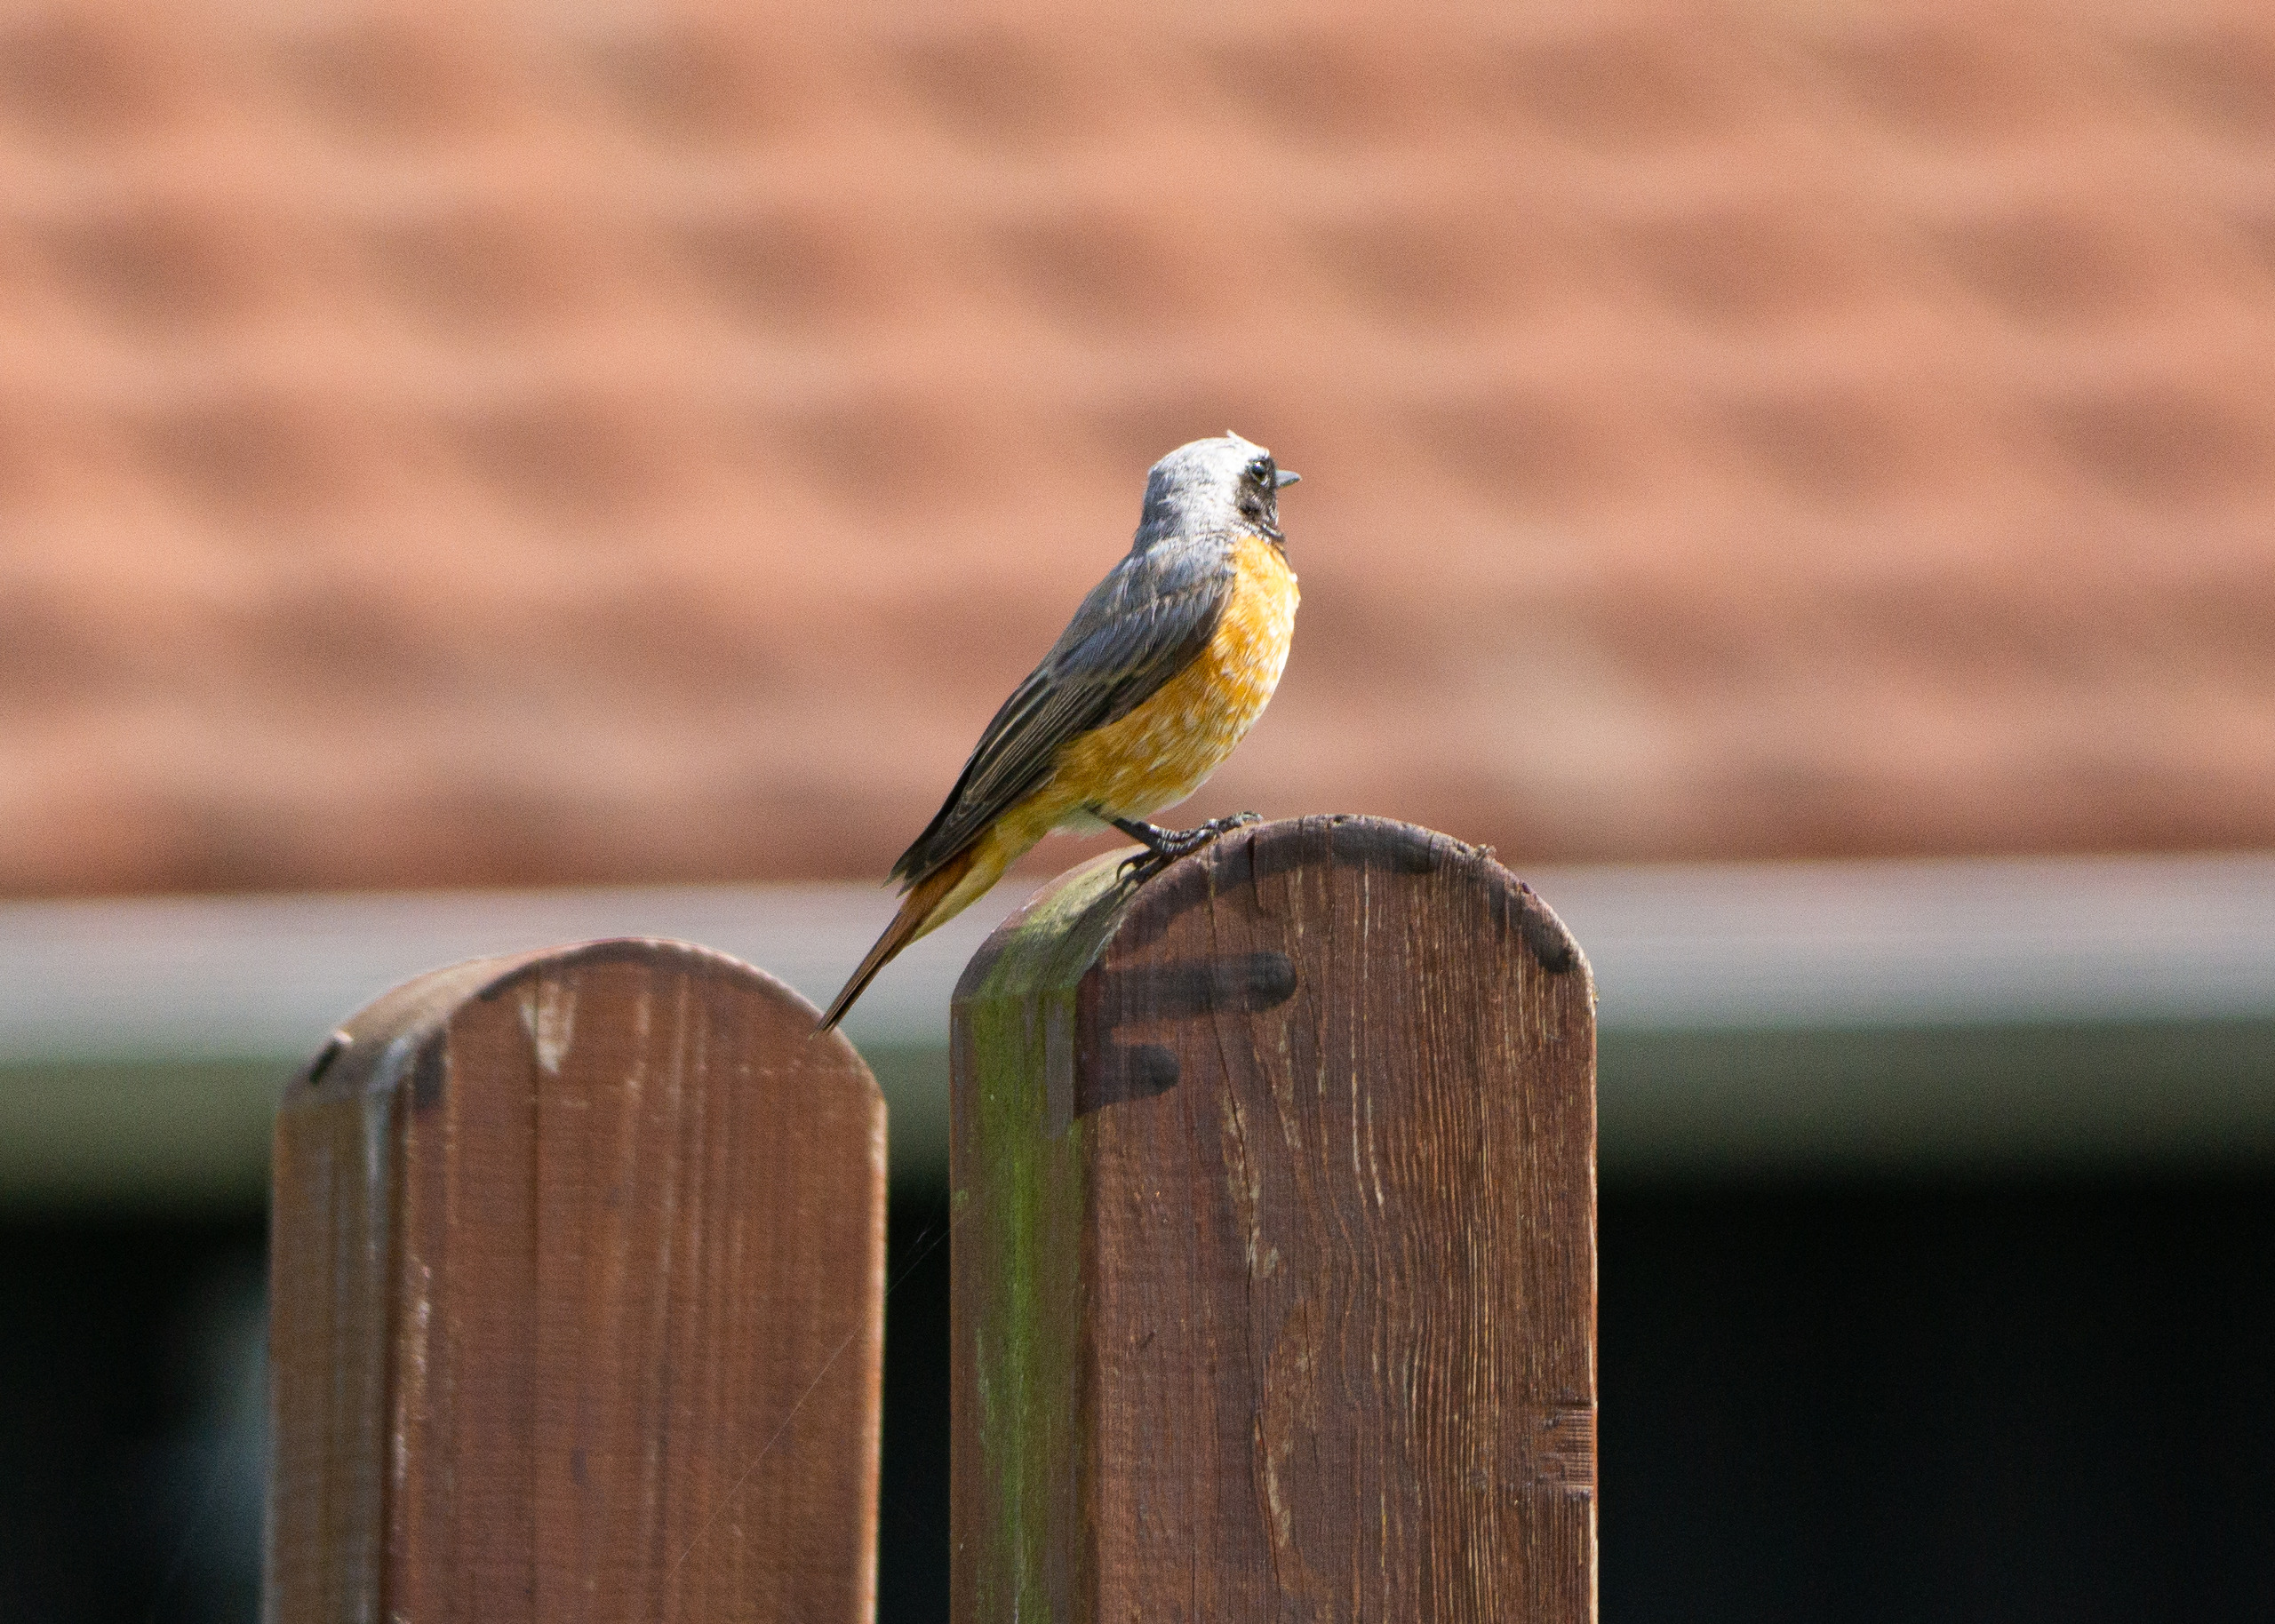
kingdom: Animalia
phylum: Chordata
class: Aves
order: Passeriformes
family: Muscicapidae
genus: Phoenicurus
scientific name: Phoenicurus phoenicurus
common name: Rødstjert
